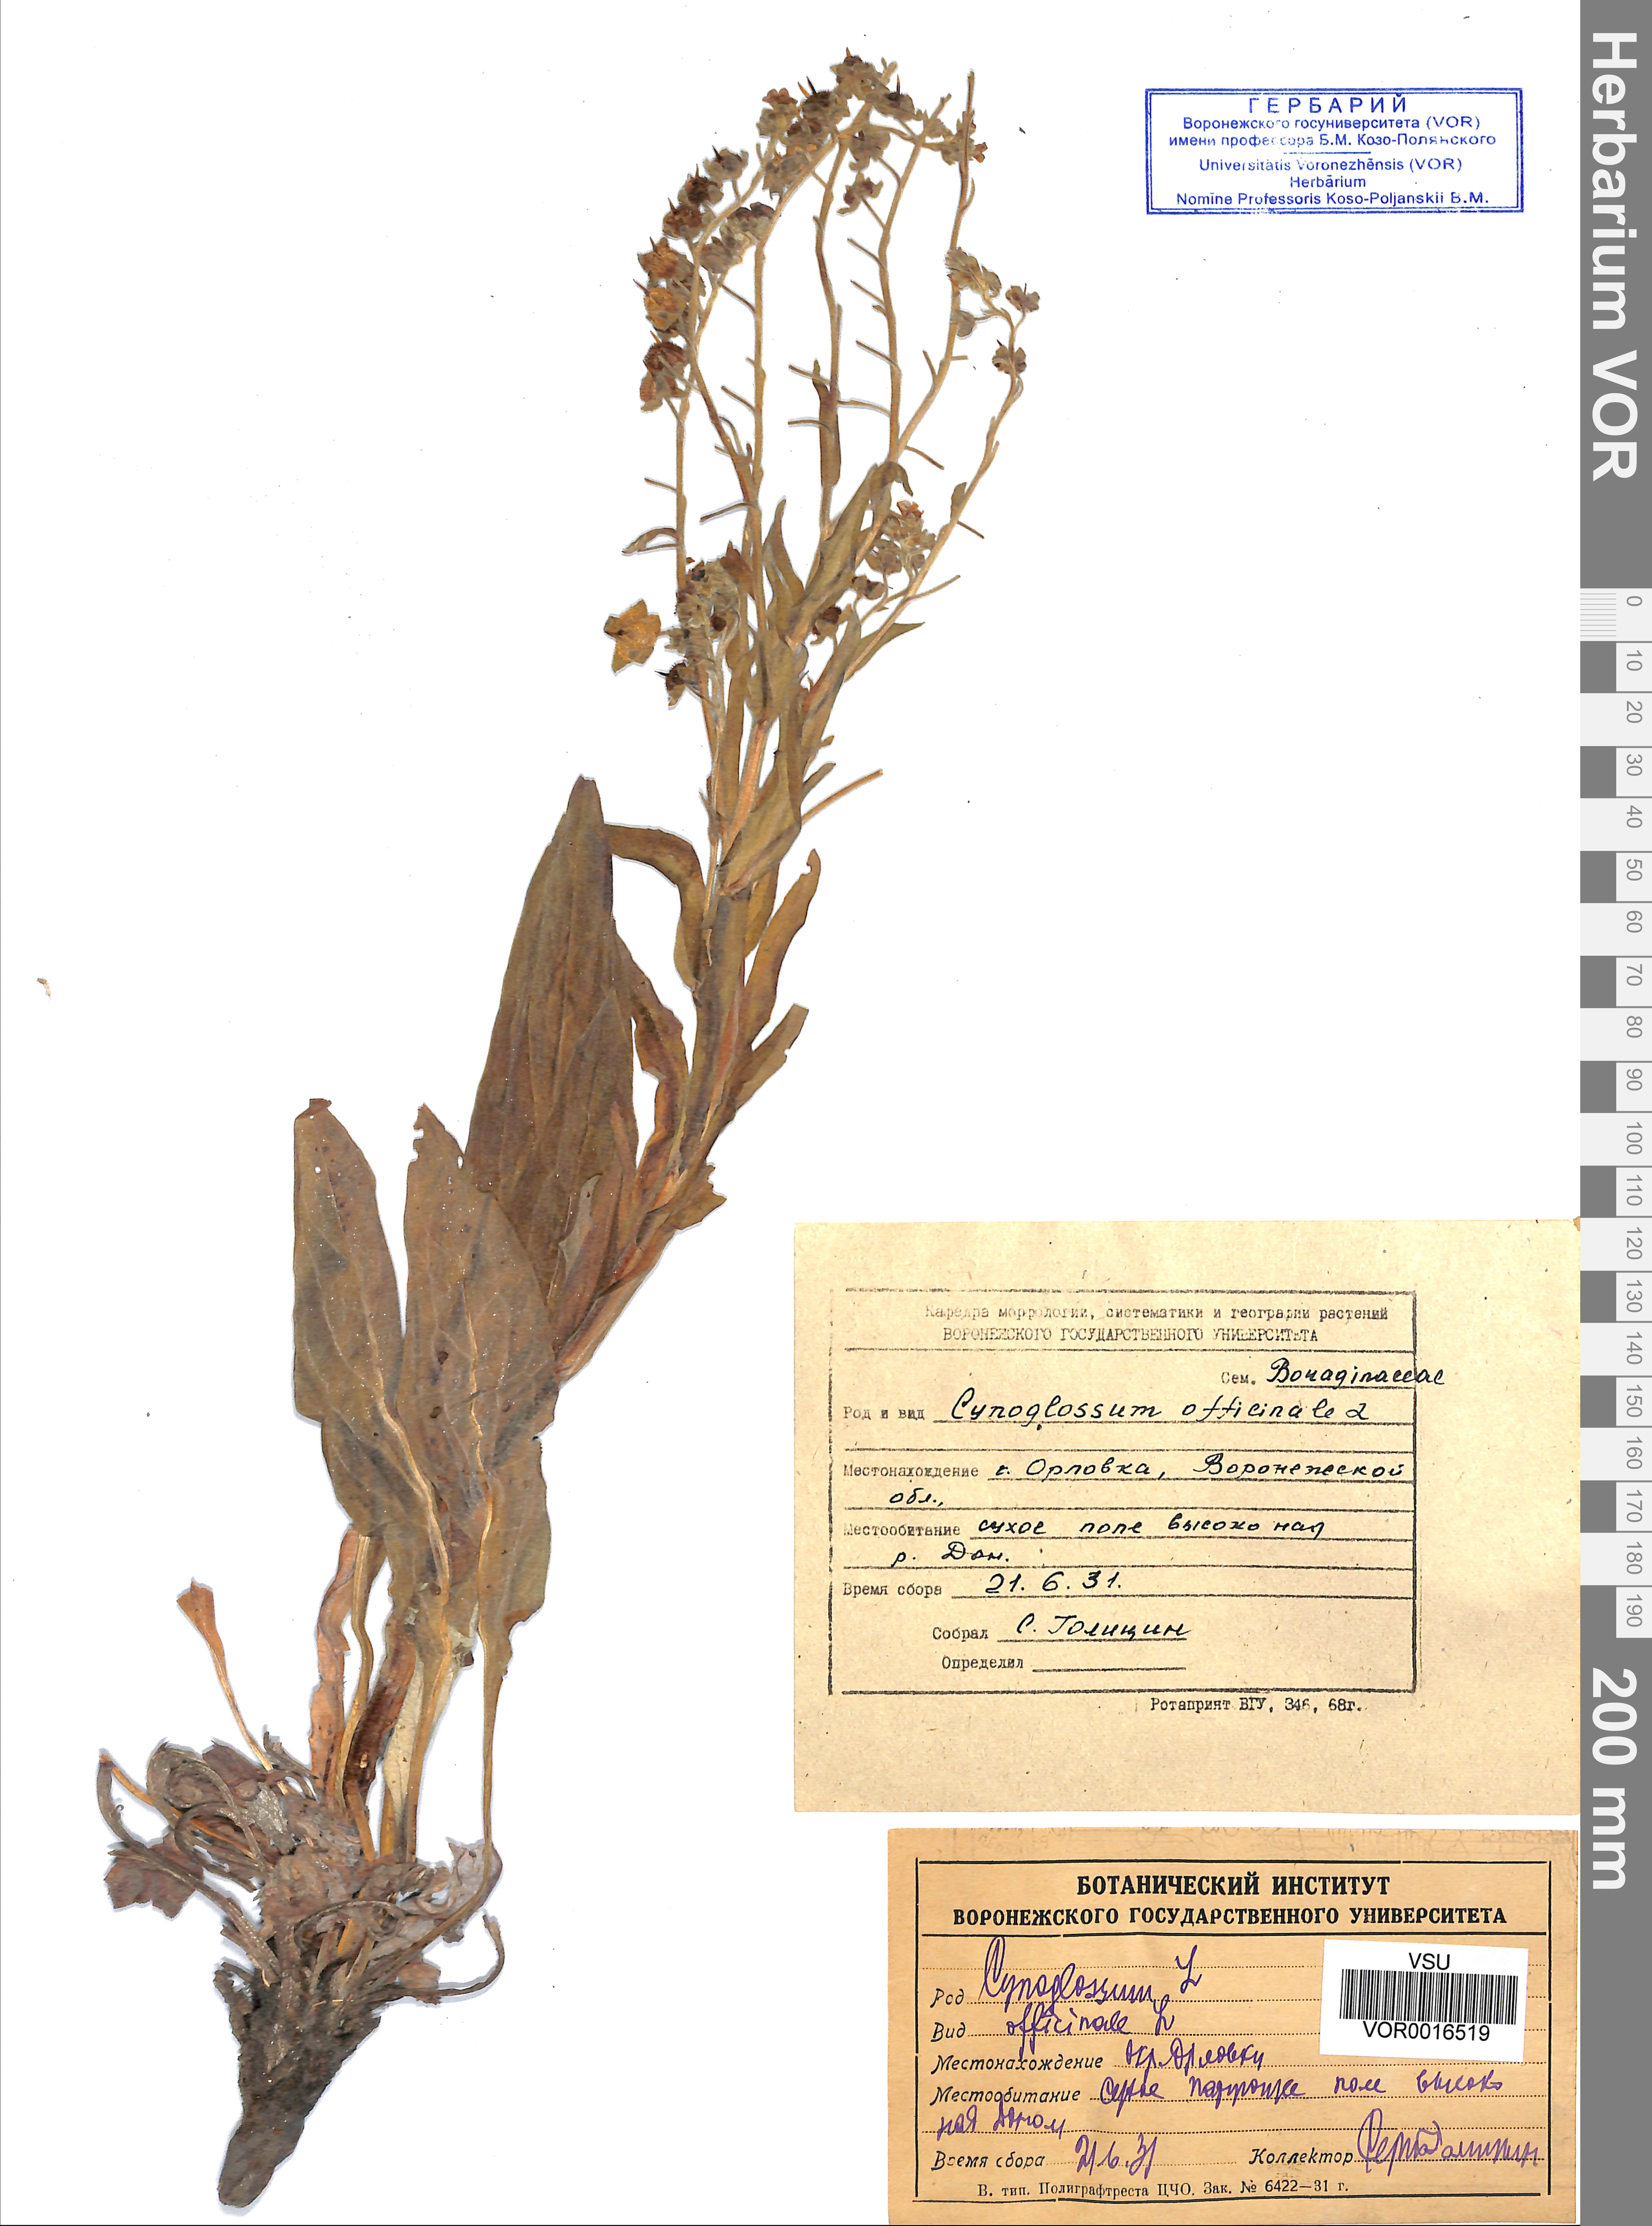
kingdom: Plantae
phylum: Tracheophyta
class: Magnoliopsida
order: Boraginales
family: Boraginaceae
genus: Cynoglossum
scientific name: Cynoglossum officinale
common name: Hound's-tongue
